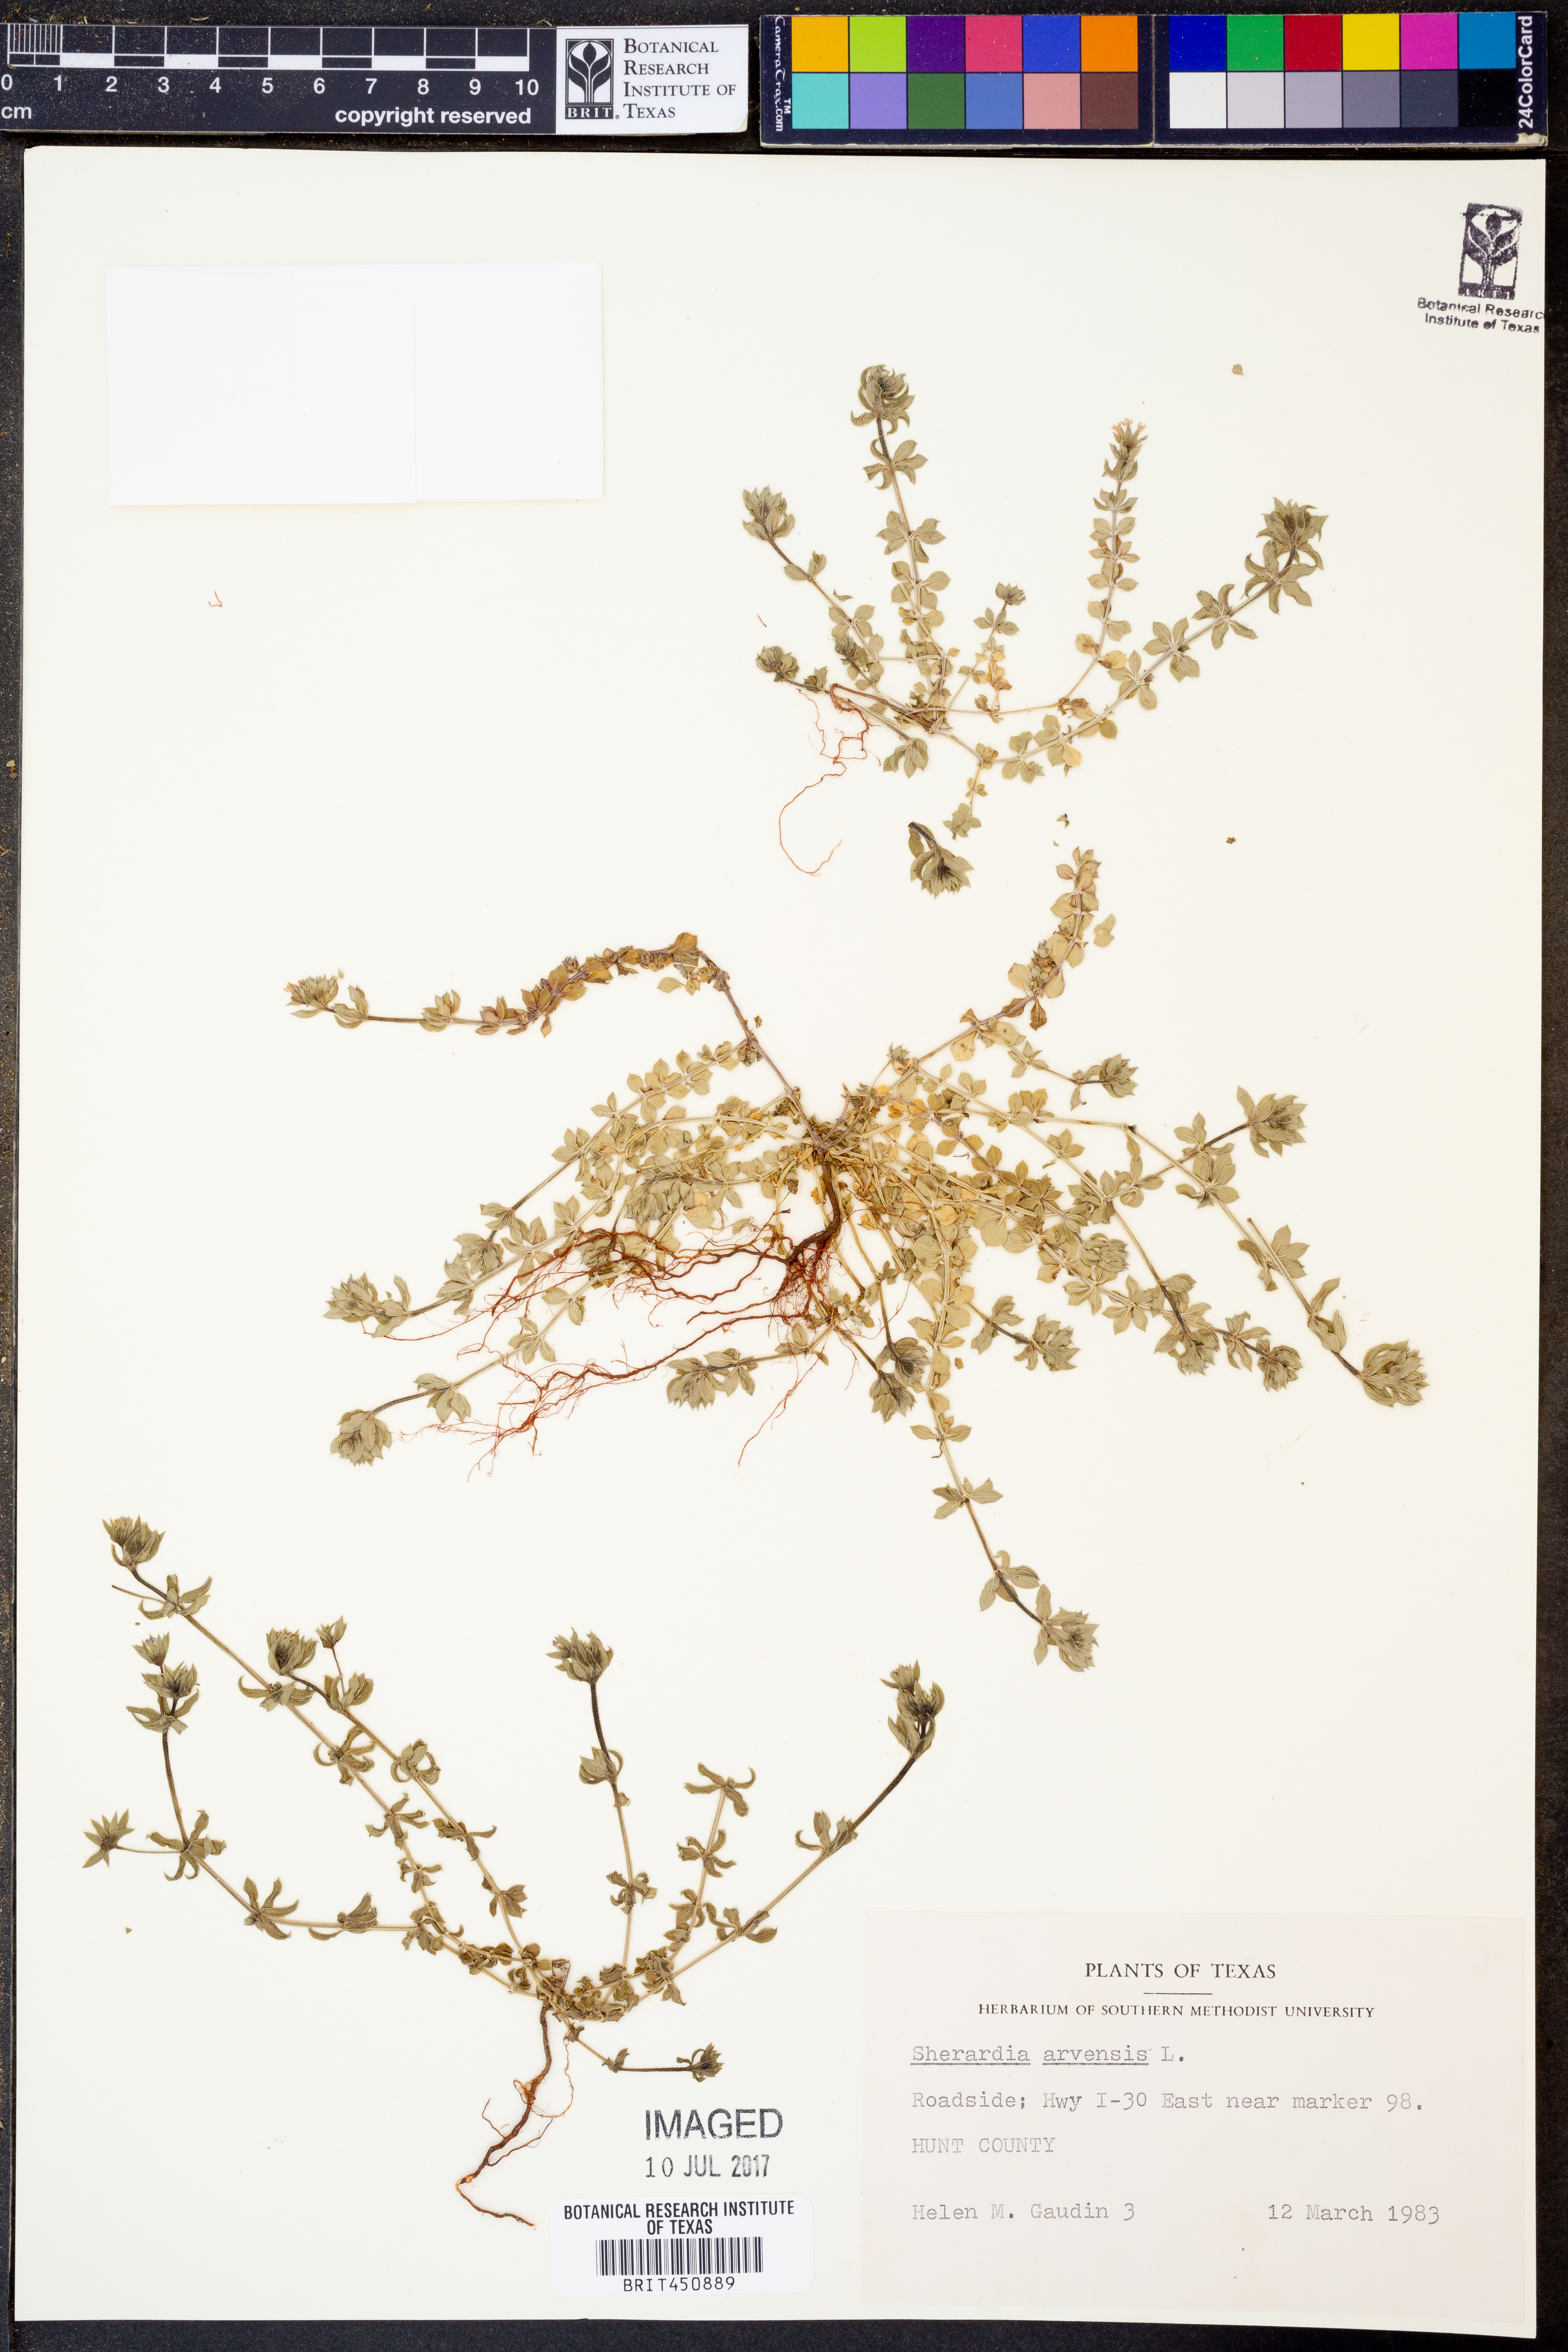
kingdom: Plantae
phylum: Tracheophyta
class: Magnoliopsida
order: Gentianales
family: Rubiaceae
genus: Sherardia
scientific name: Sherardia arvensis
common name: Field madder
